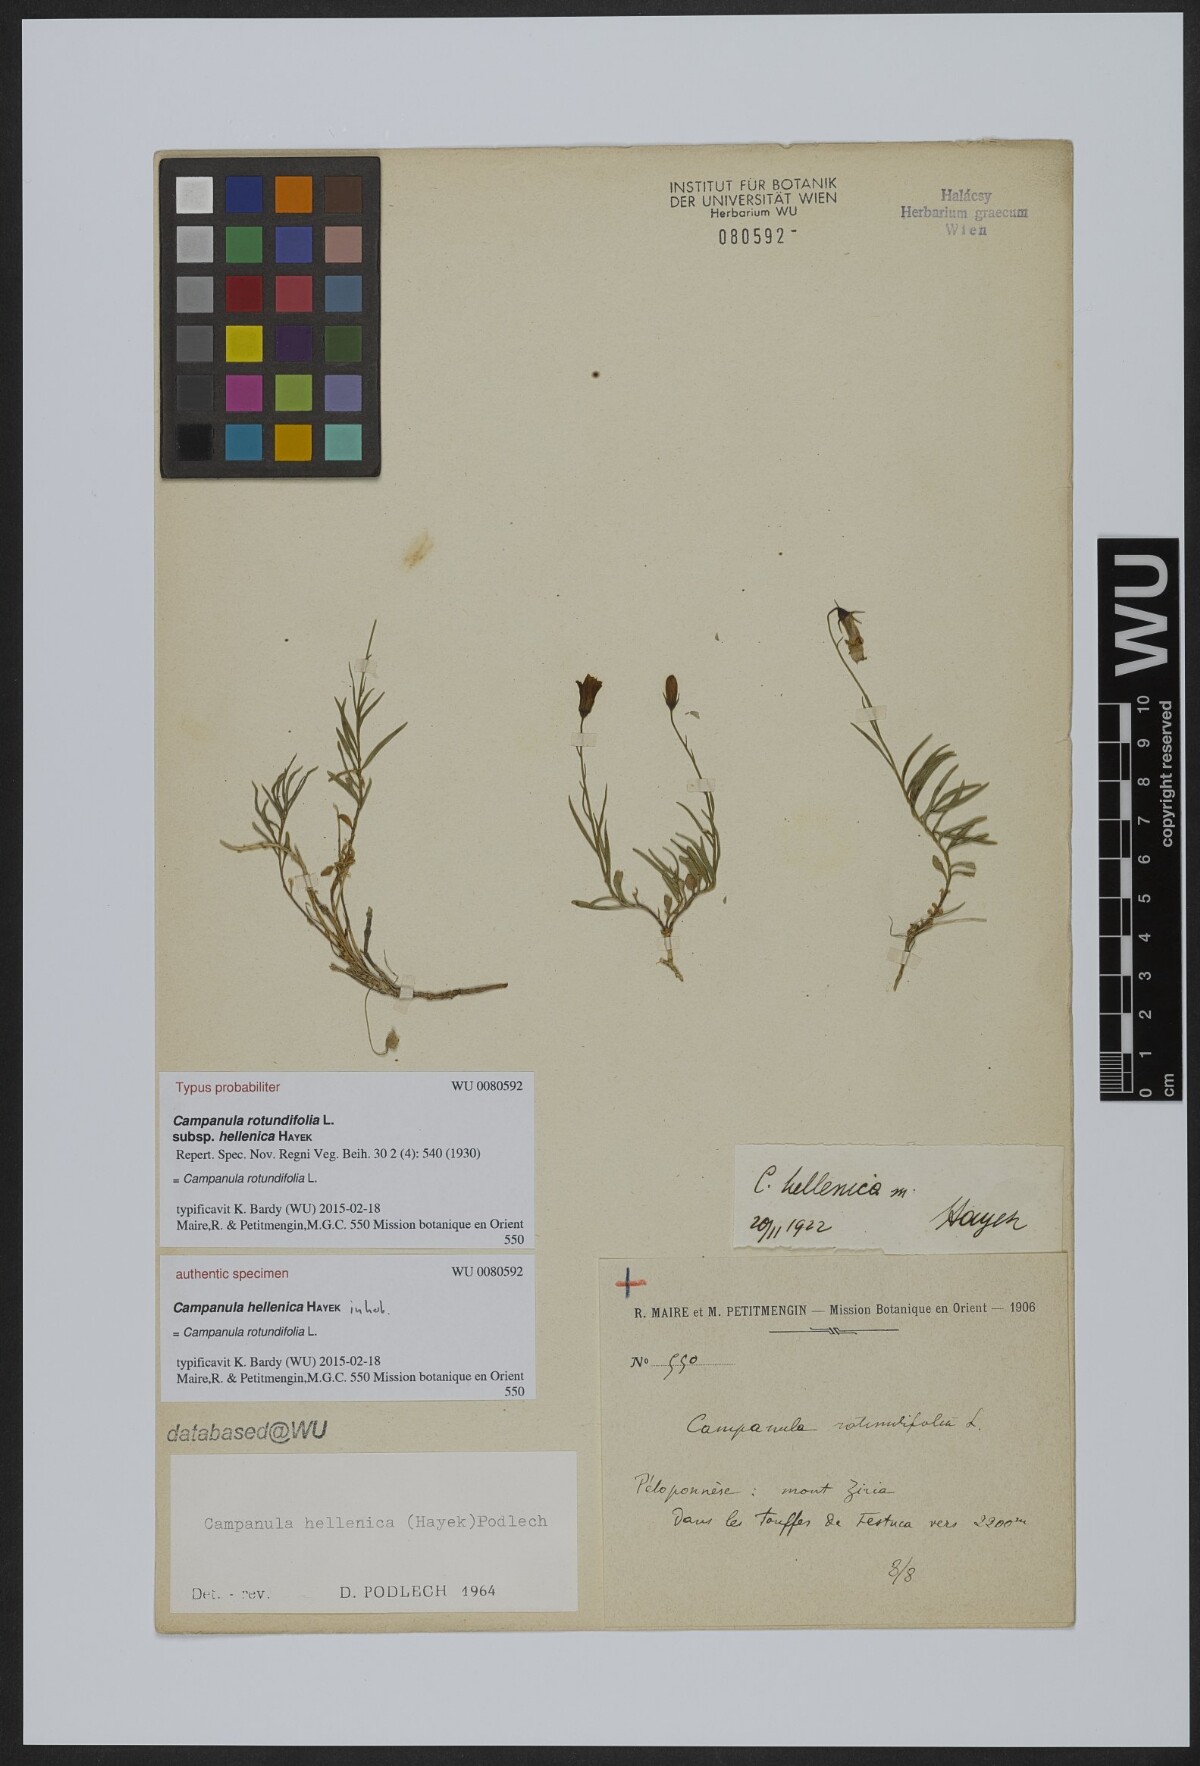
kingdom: Plantae
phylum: Tracheophyta
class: Magnoliopsida
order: Asterales
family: Campanulaceae
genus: Campanula
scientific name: Campanula albanica
